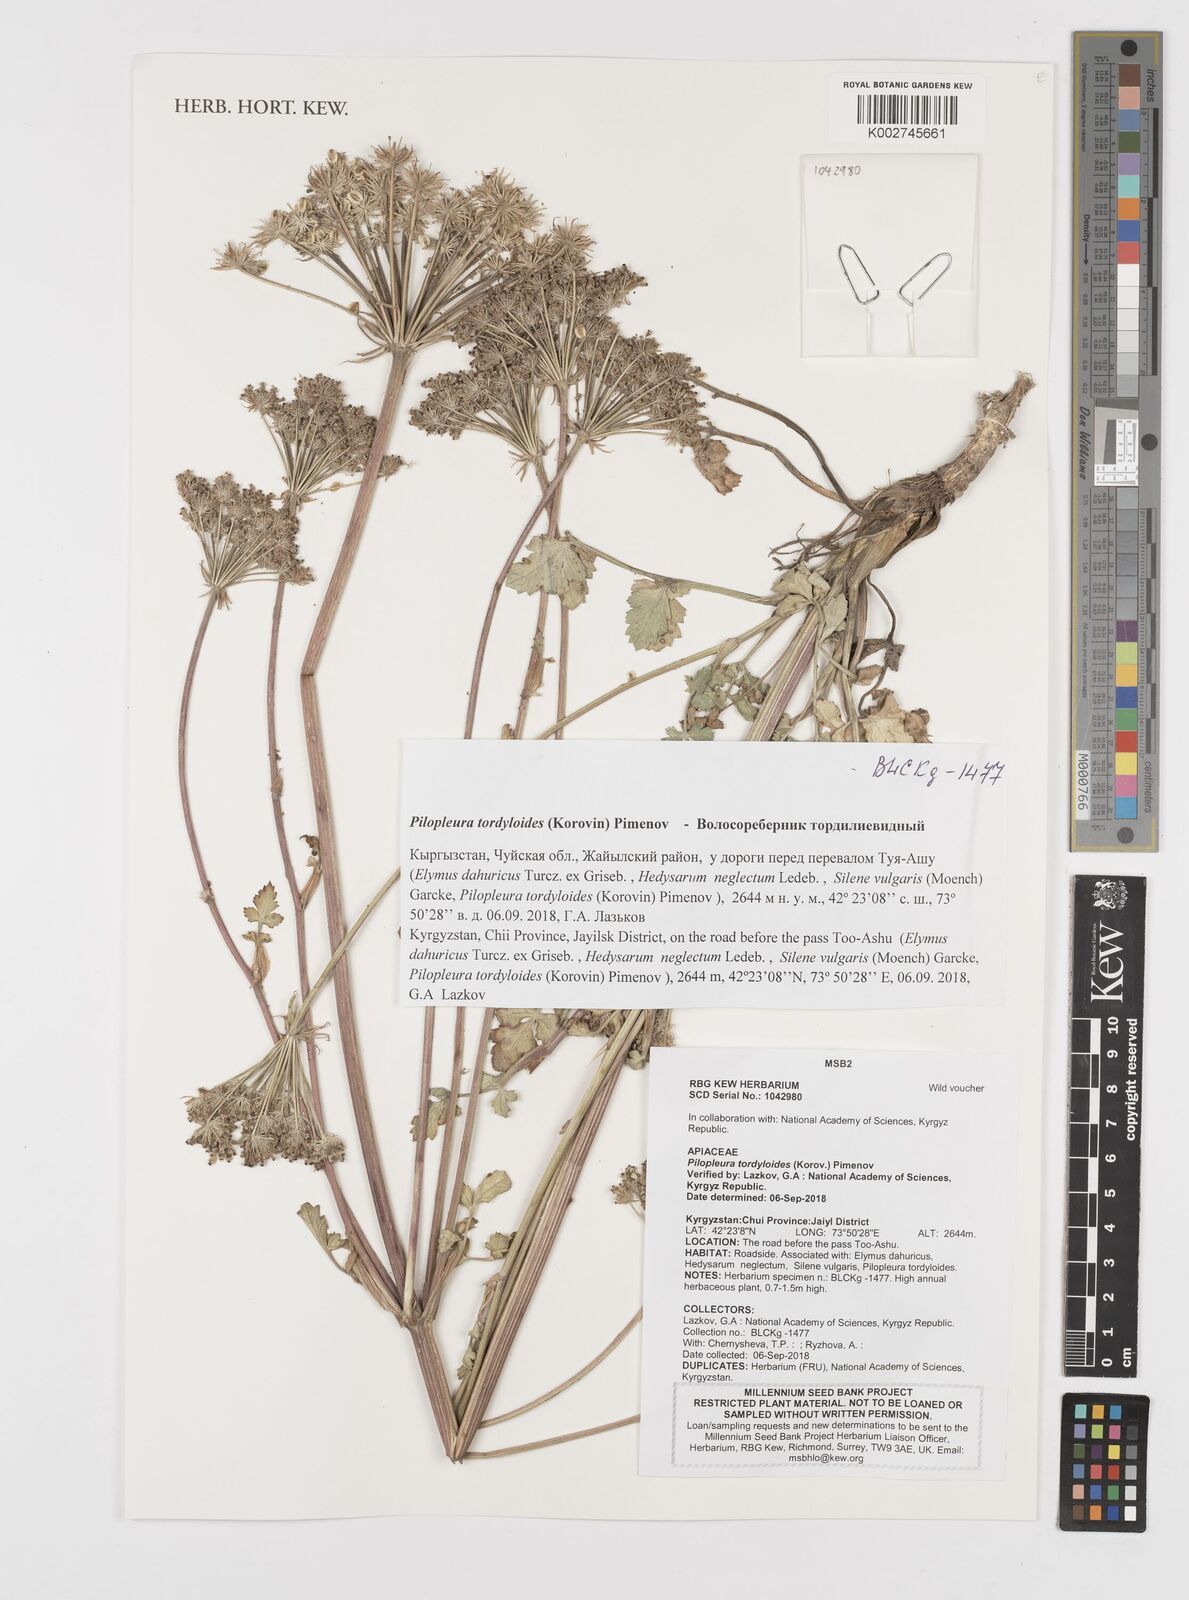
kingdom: Plantae
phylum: Tracheophyta
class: Magnoliopsida
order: Apiales
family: Apiaceae
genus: Pilopleura
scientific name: Pilopleura tordyloides
